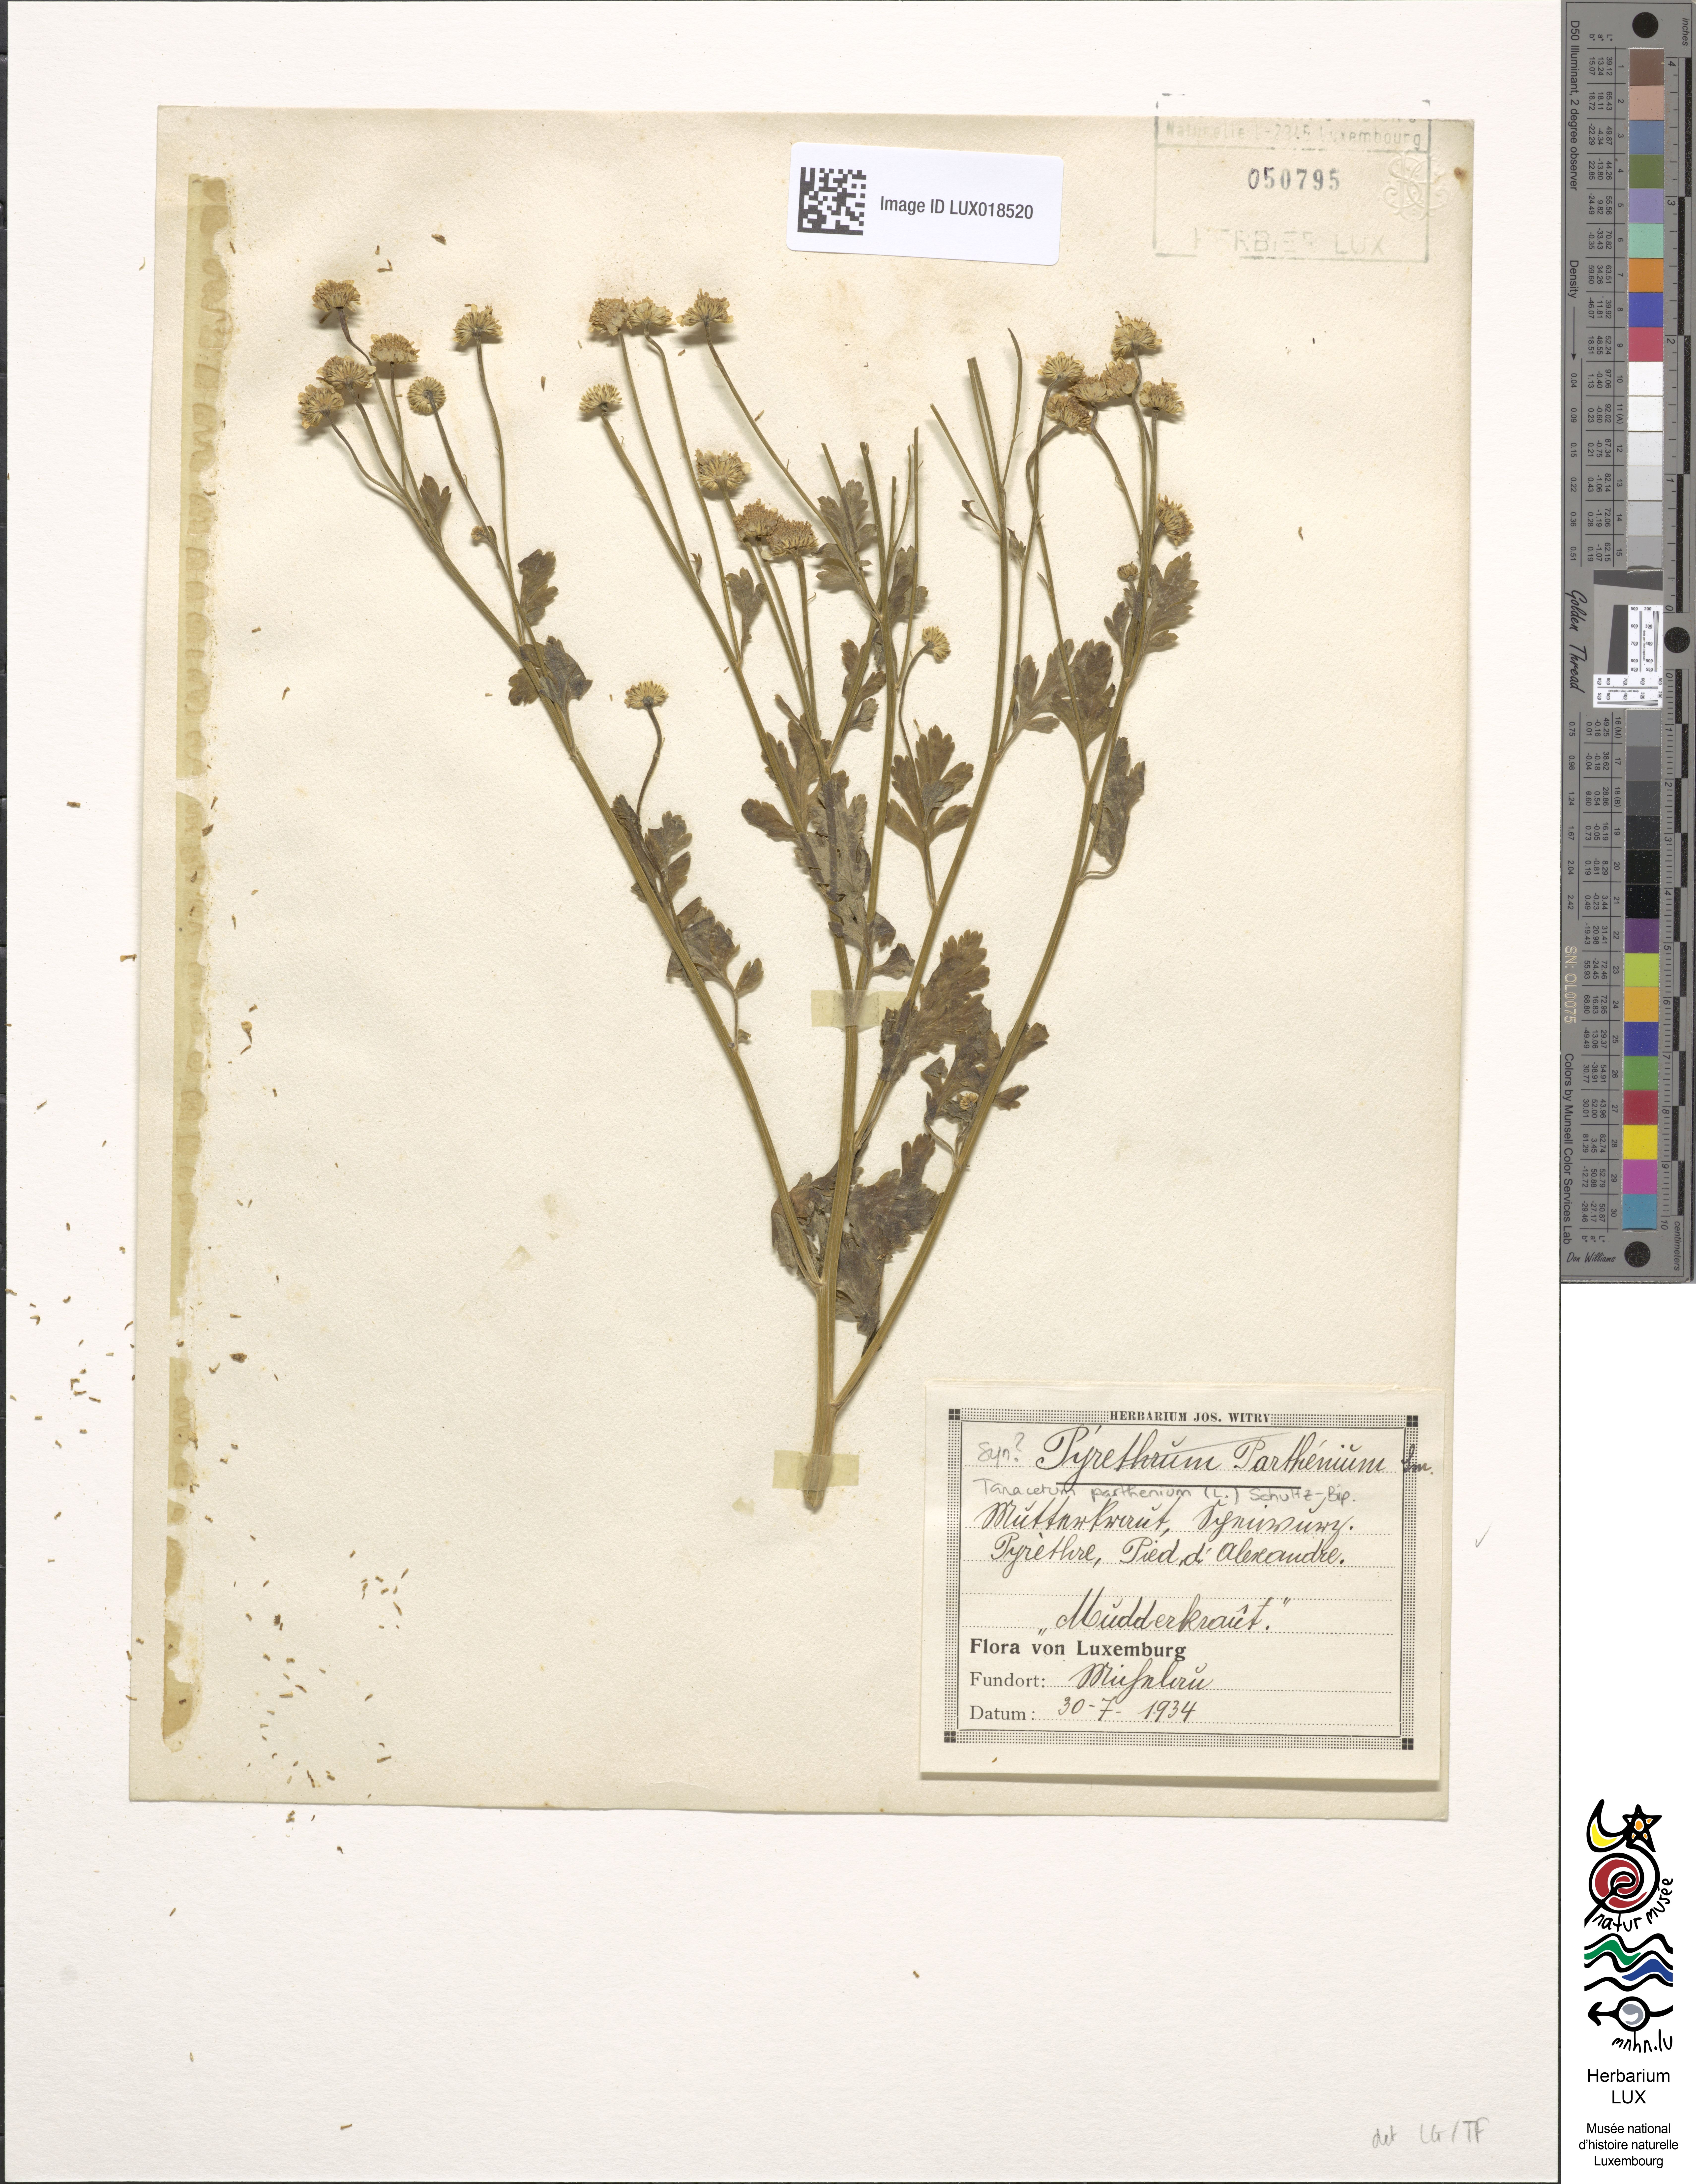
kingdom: Plantae
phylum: Tracheophyta
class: Magnoliopsida
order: Asterales
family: Asteraceae
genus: Tanacetum
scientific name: Tanacetum parthenium
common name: Feverfew
